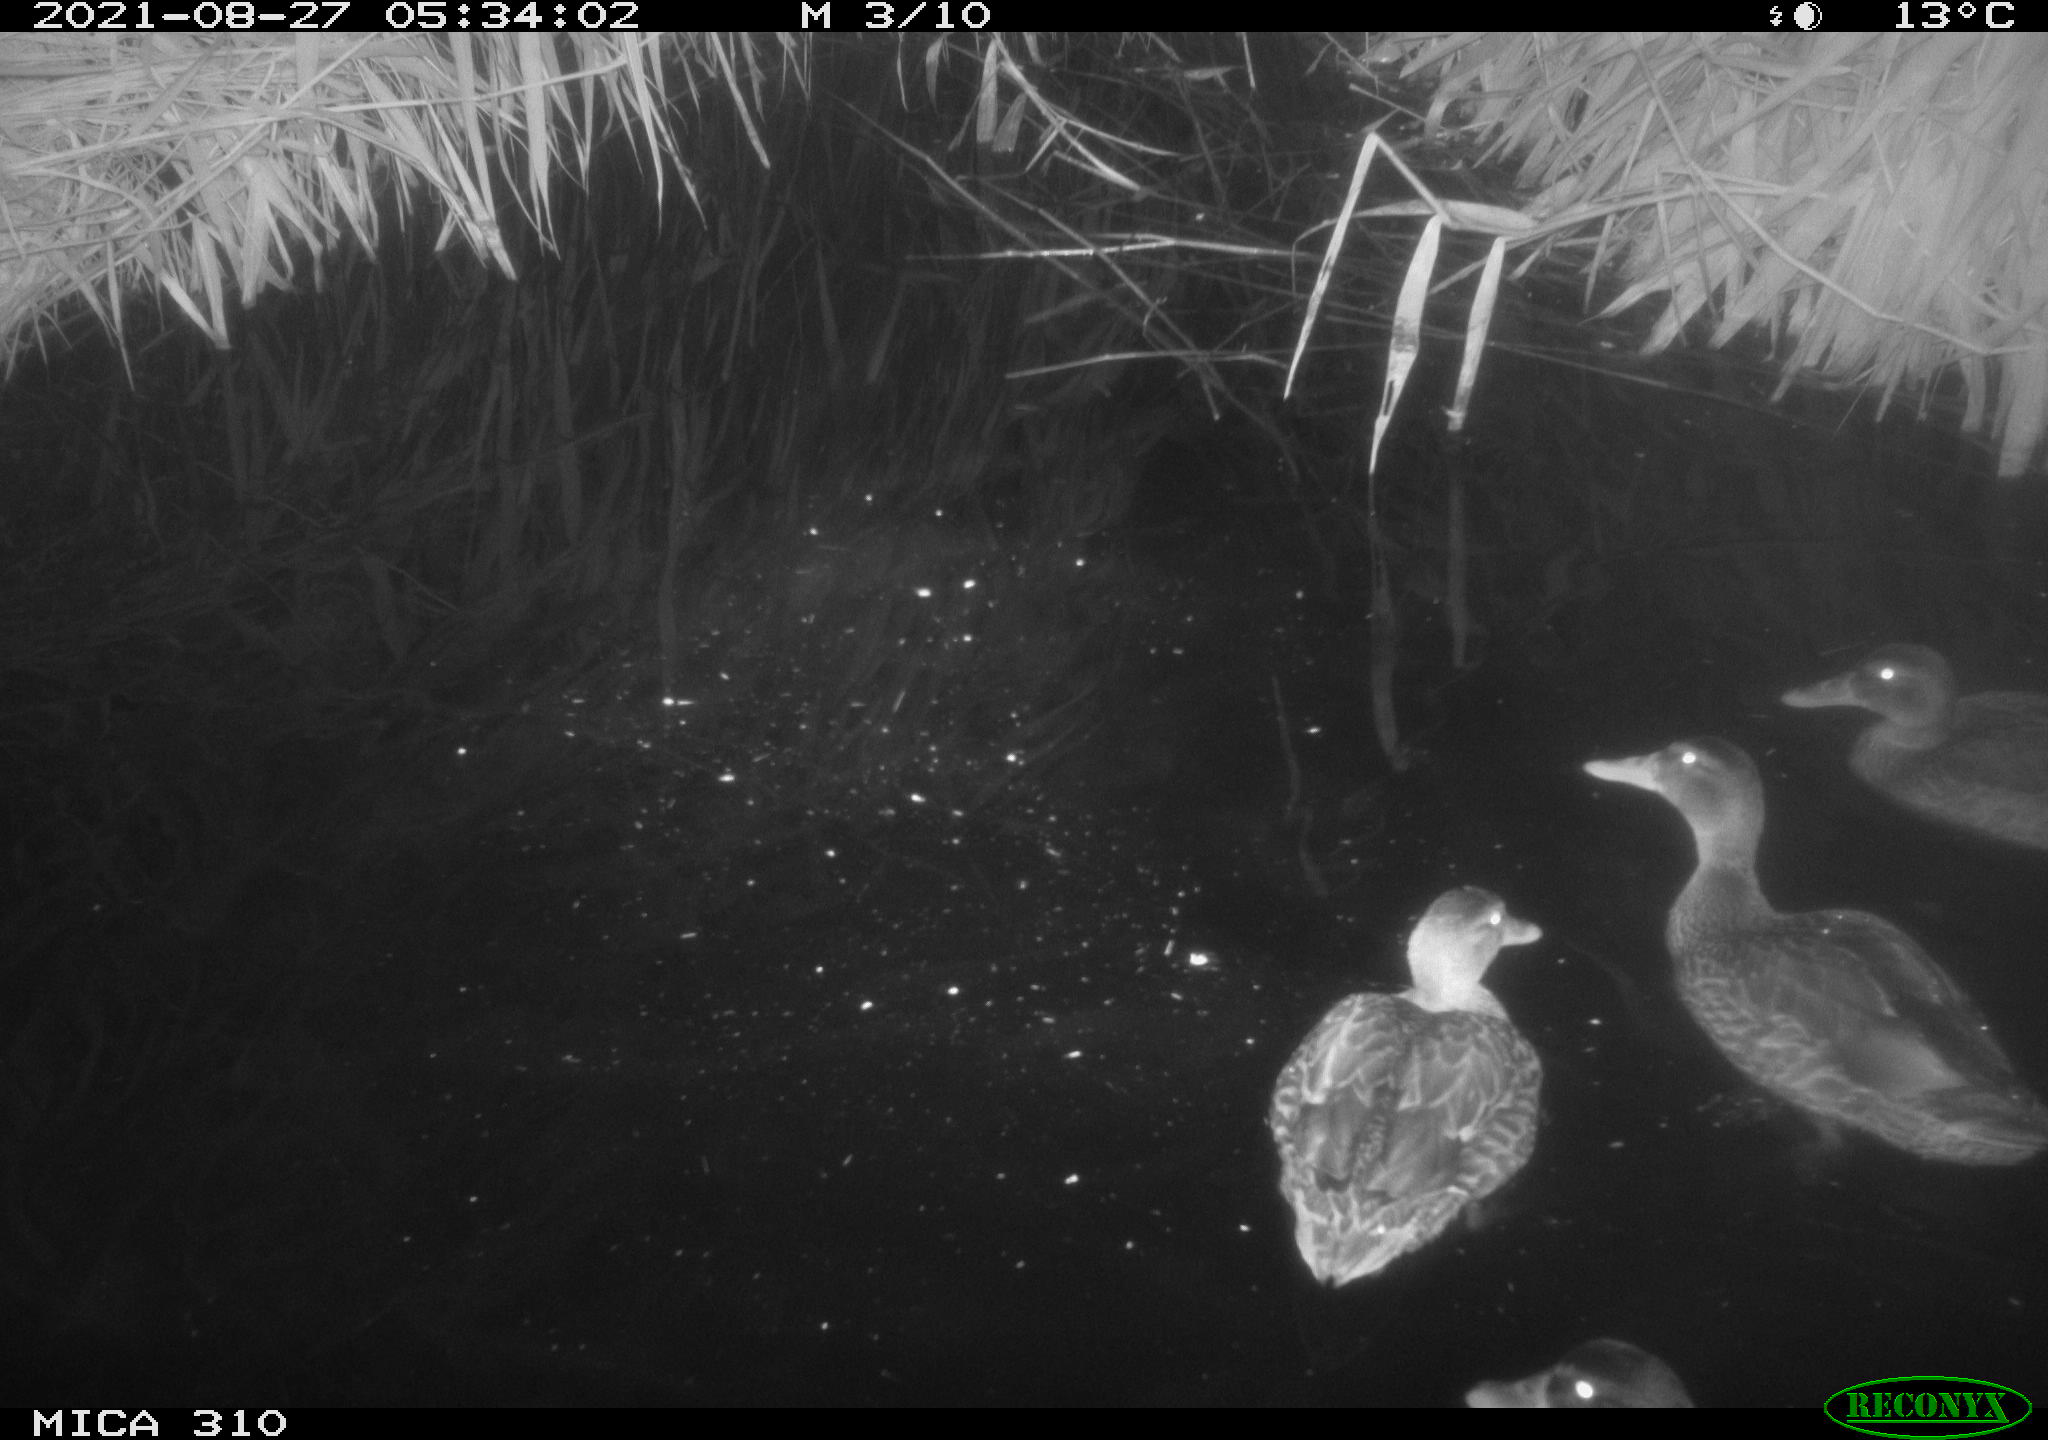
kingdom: Animalia
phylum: Chordata
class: Aves
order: Anseriformes
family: Anatidae
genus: Anas
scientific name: Anas platyrhynchos
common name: Mallard
